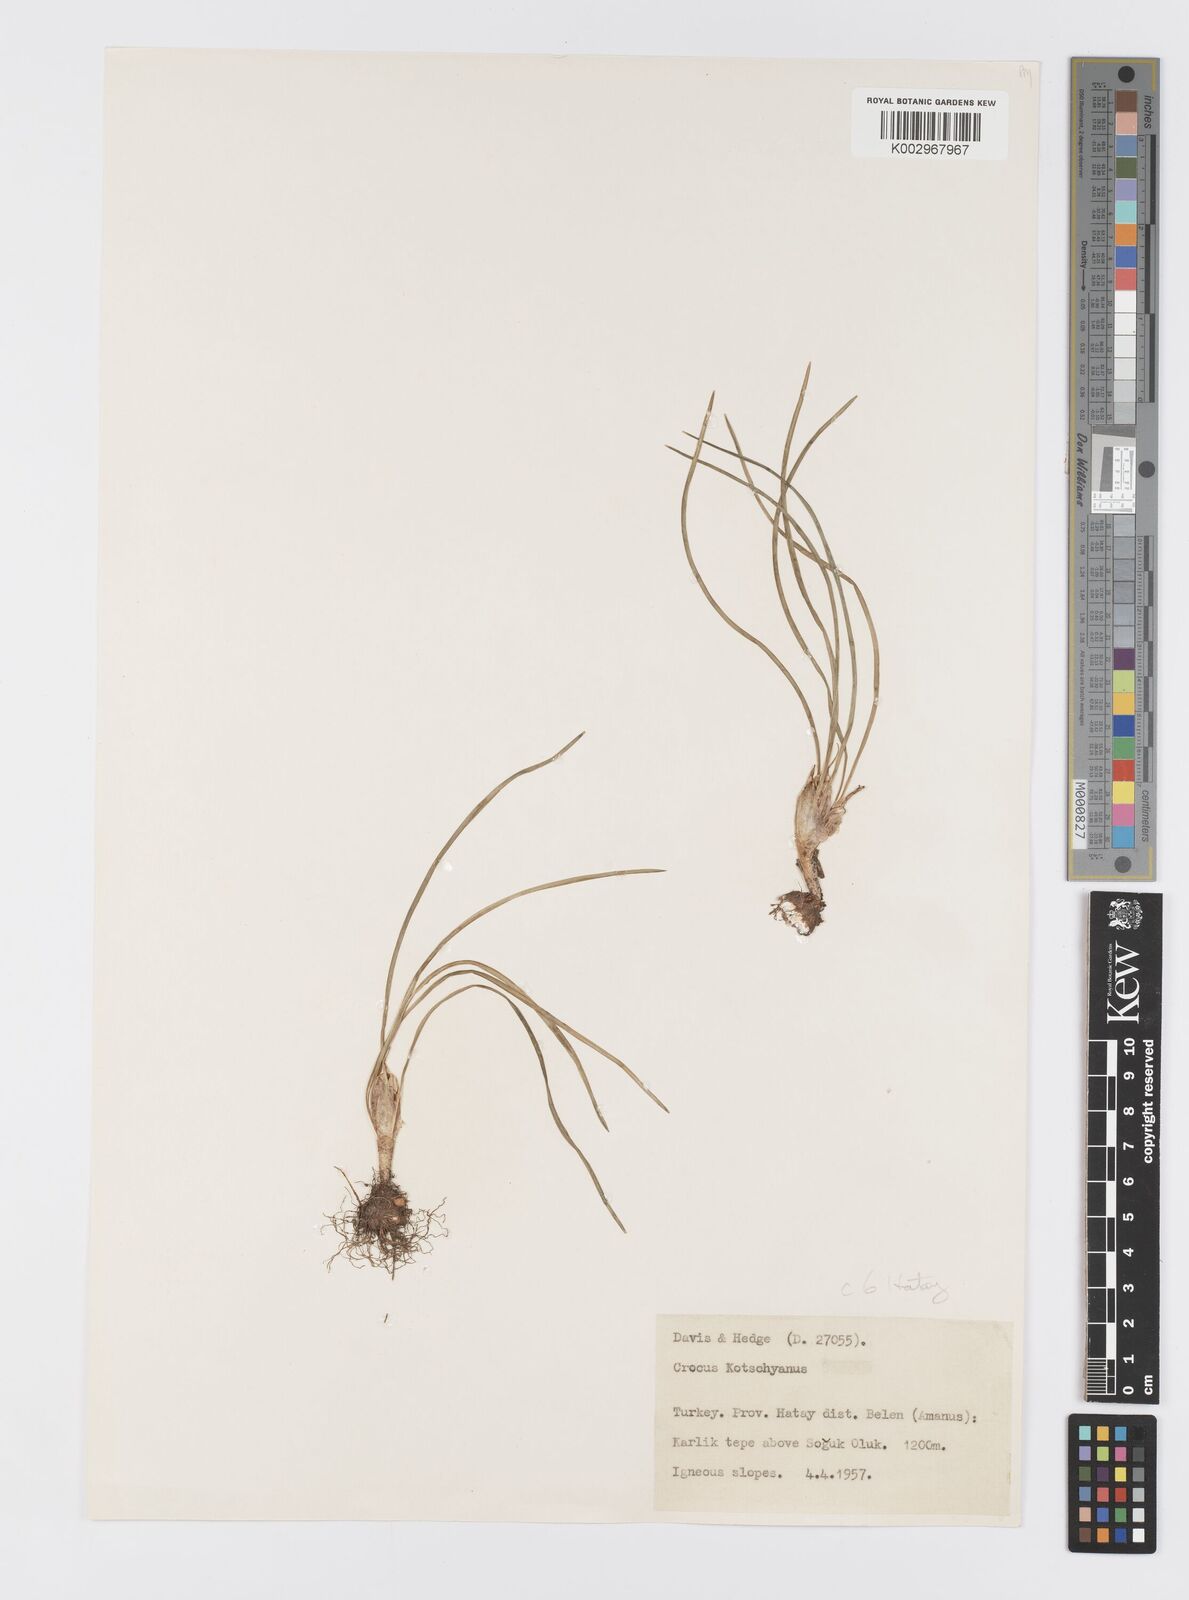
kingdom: Plantae
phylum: Tracheophyta
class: Liliopsida
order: Asparagales
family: Iridaceae
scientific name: Iridaceae
